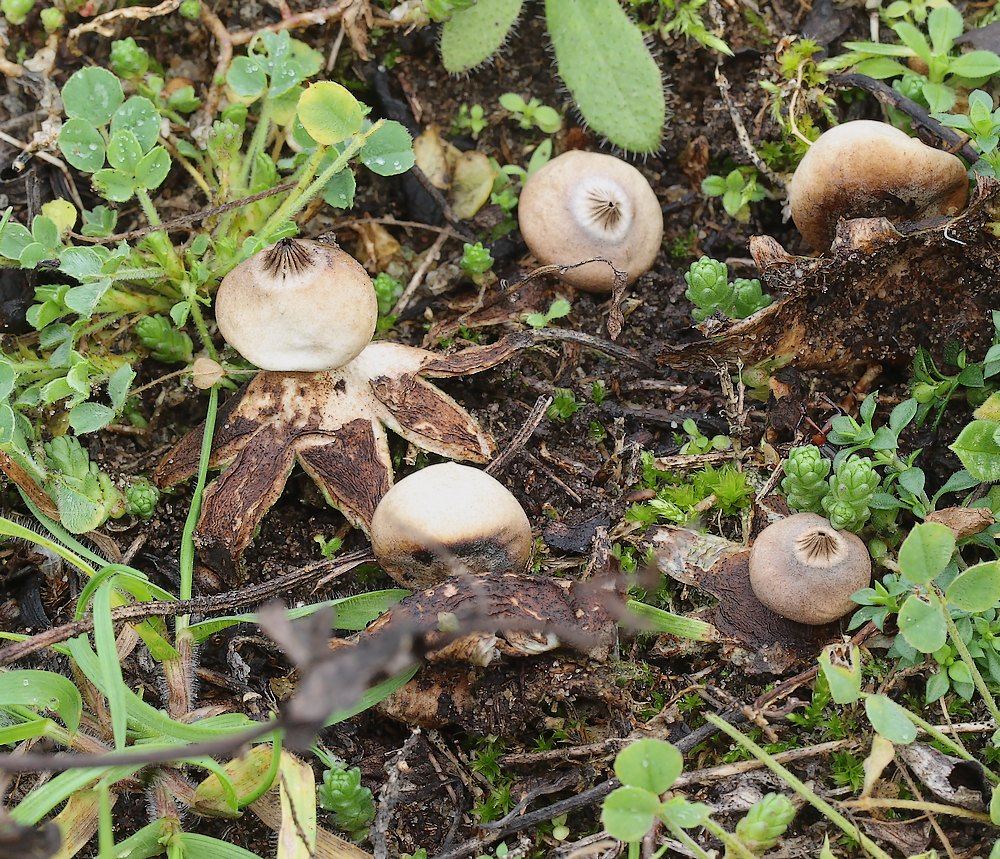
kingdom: Fungi
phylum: Basidiomycota
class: Agaricomycetes
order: Geastrales
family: Geastraceae
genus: Geastrum
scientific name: Geastrum striatum
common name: dværg-stjernebold
